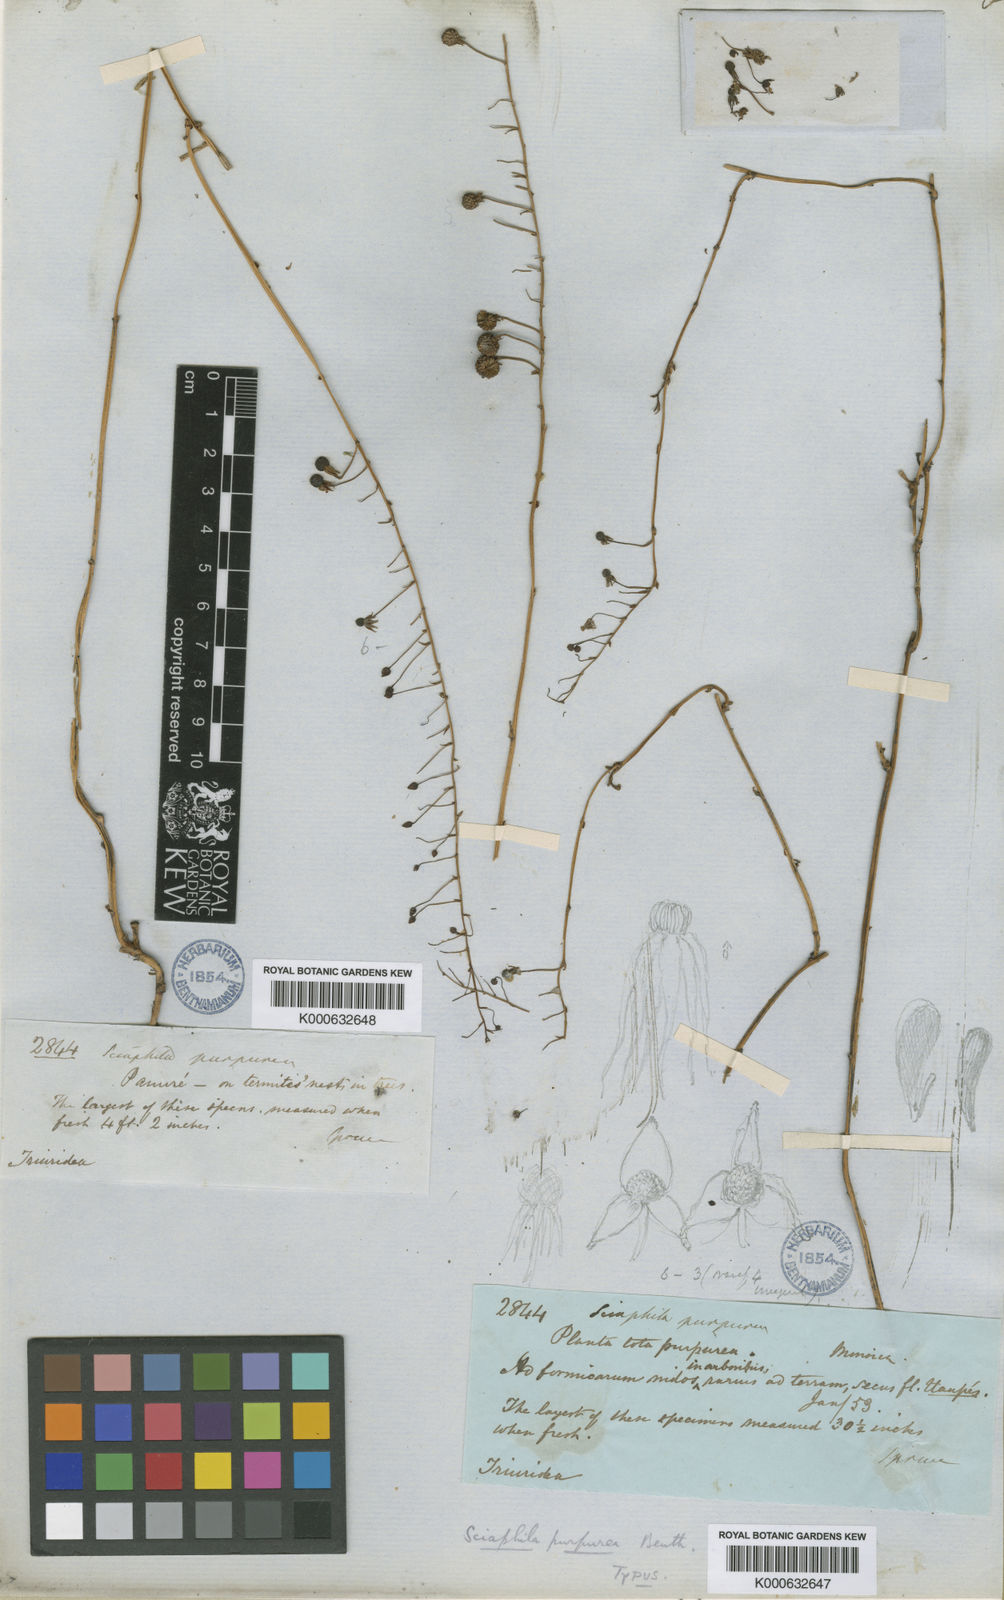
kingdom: Plantae
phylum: Tracheophyta
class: Liliopsida
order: Pandanales
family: Triuridaceae
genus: Sciaphila
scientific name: Sciaphila purpurea
